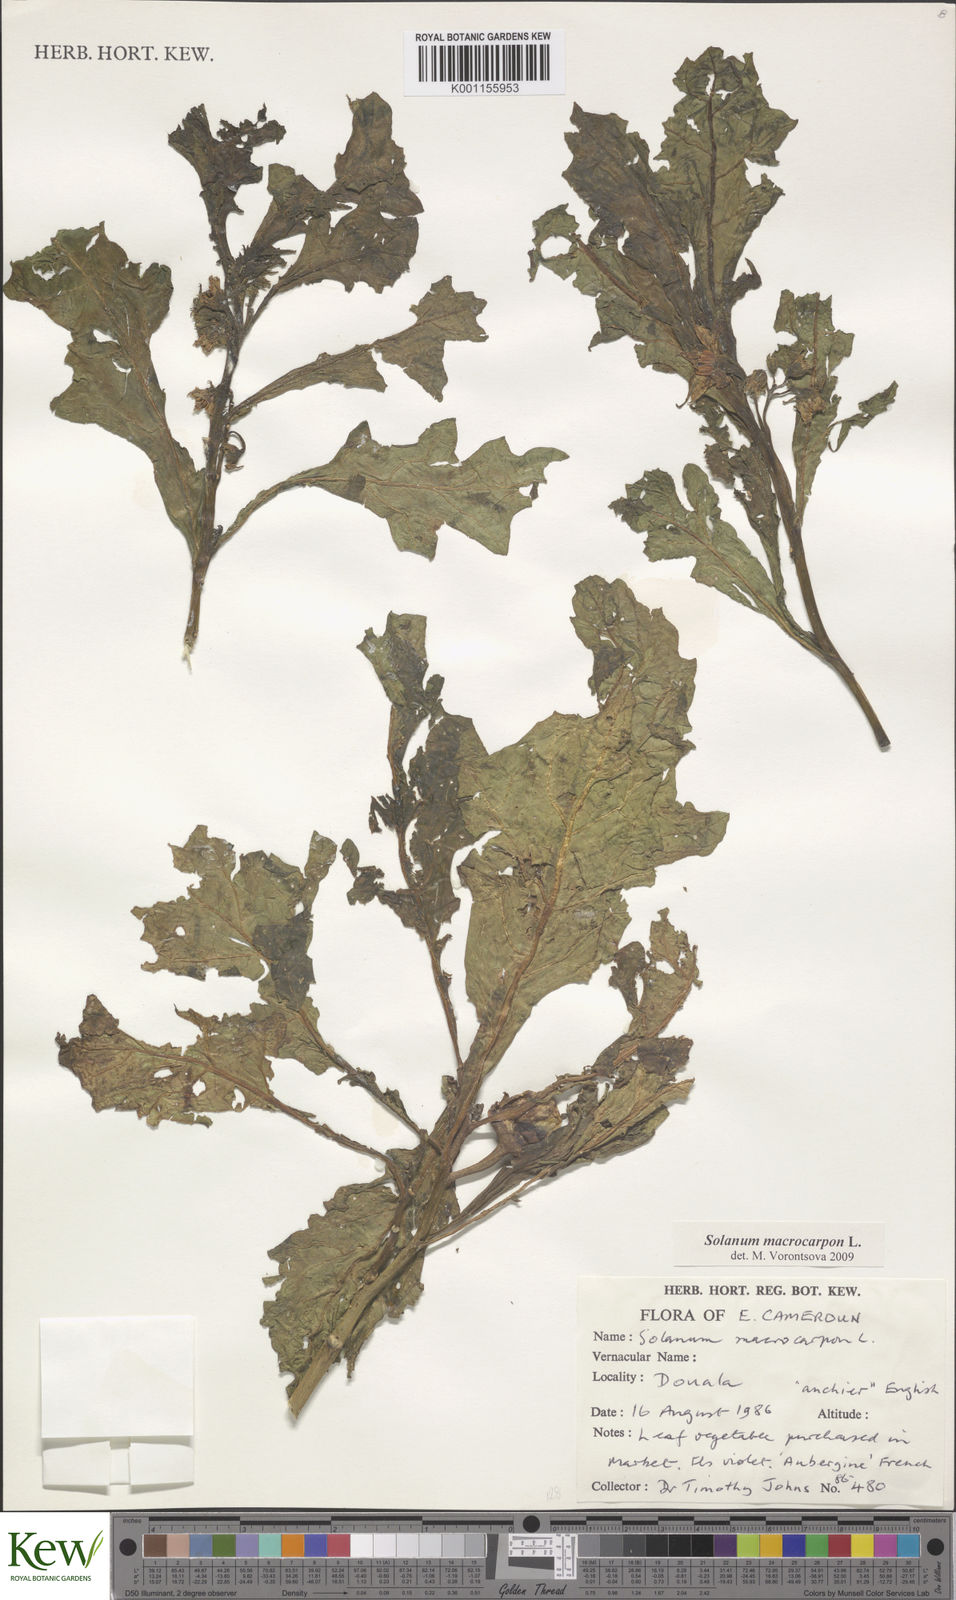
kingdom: Plantae
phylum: Tracheophyta
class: Magnoliopsida
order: Solanales
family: Solanaceae
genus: Solanum
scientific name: Solanum macrocarpon
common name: African eggplant
